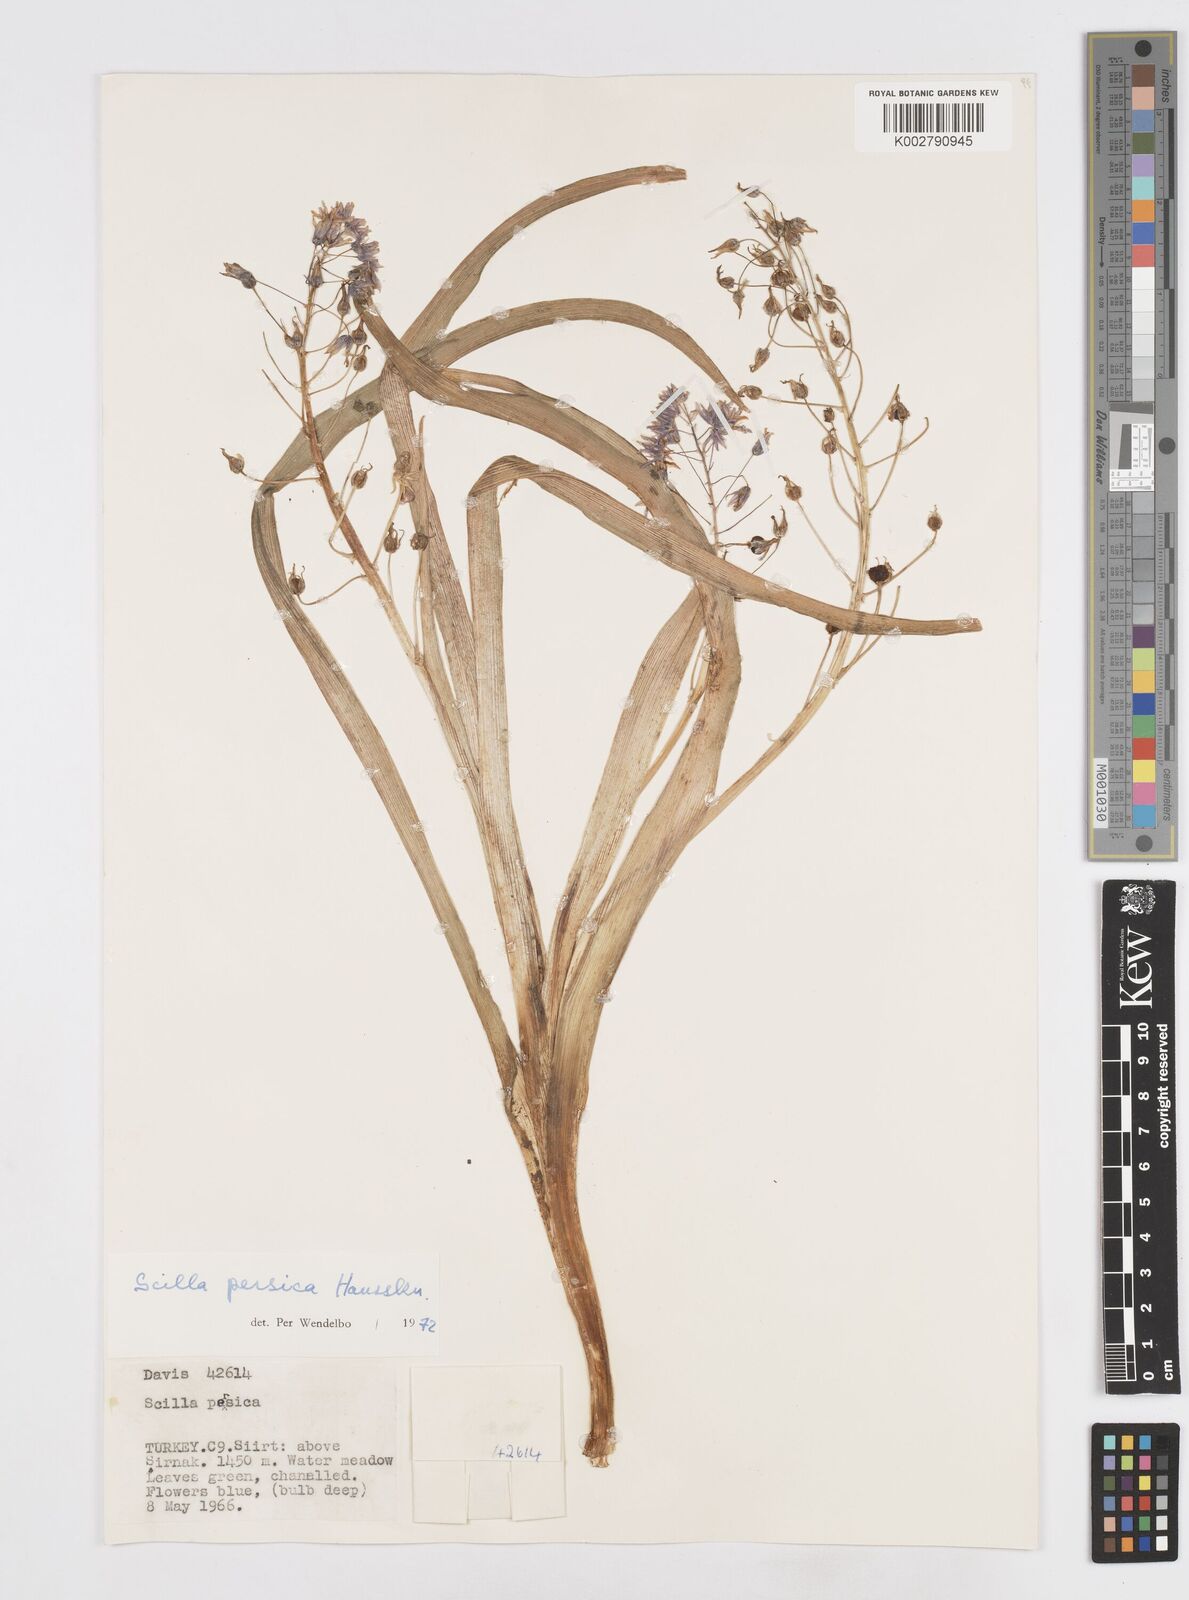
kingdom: Plantae
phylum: Tracheophyta
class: Liliopsida
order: Asparagales
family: Asparagaceae
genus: Zagrosia
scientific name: Zagrosia persica
